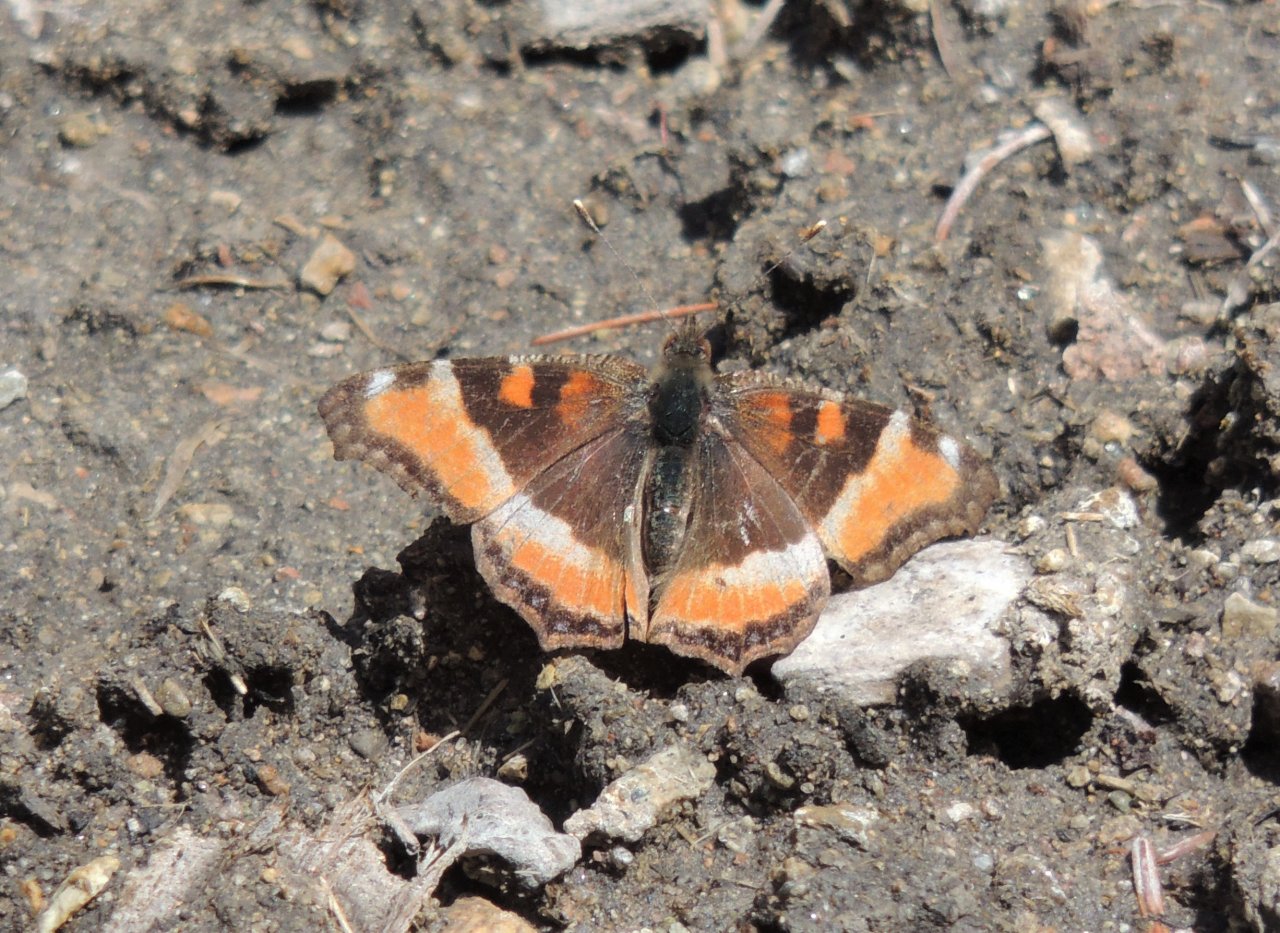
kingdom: Animalia
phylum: Arthropoda
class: Insecta
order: Lepidoptera
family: Nymphalidae
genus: Aglais
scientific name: Aglais milberti
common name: Milbert's Tortoiseshell
